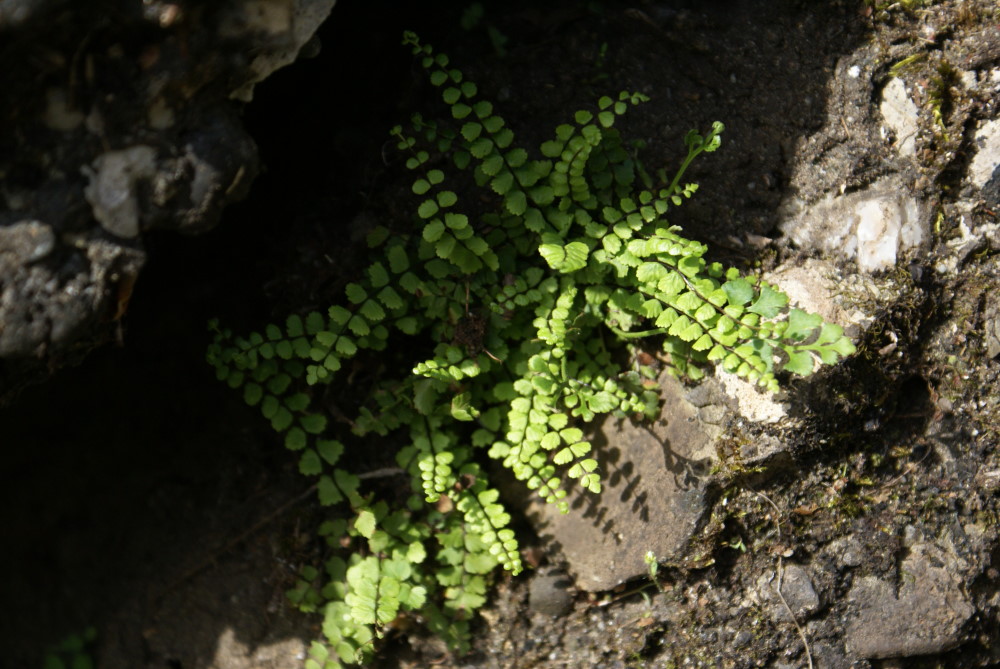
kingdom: Plantae
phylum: Tracheophyta
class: Polypodiopsida
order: Polypodiales
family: Aspleniaceae
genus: Asplenium
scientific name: Asplenium trichomanes
